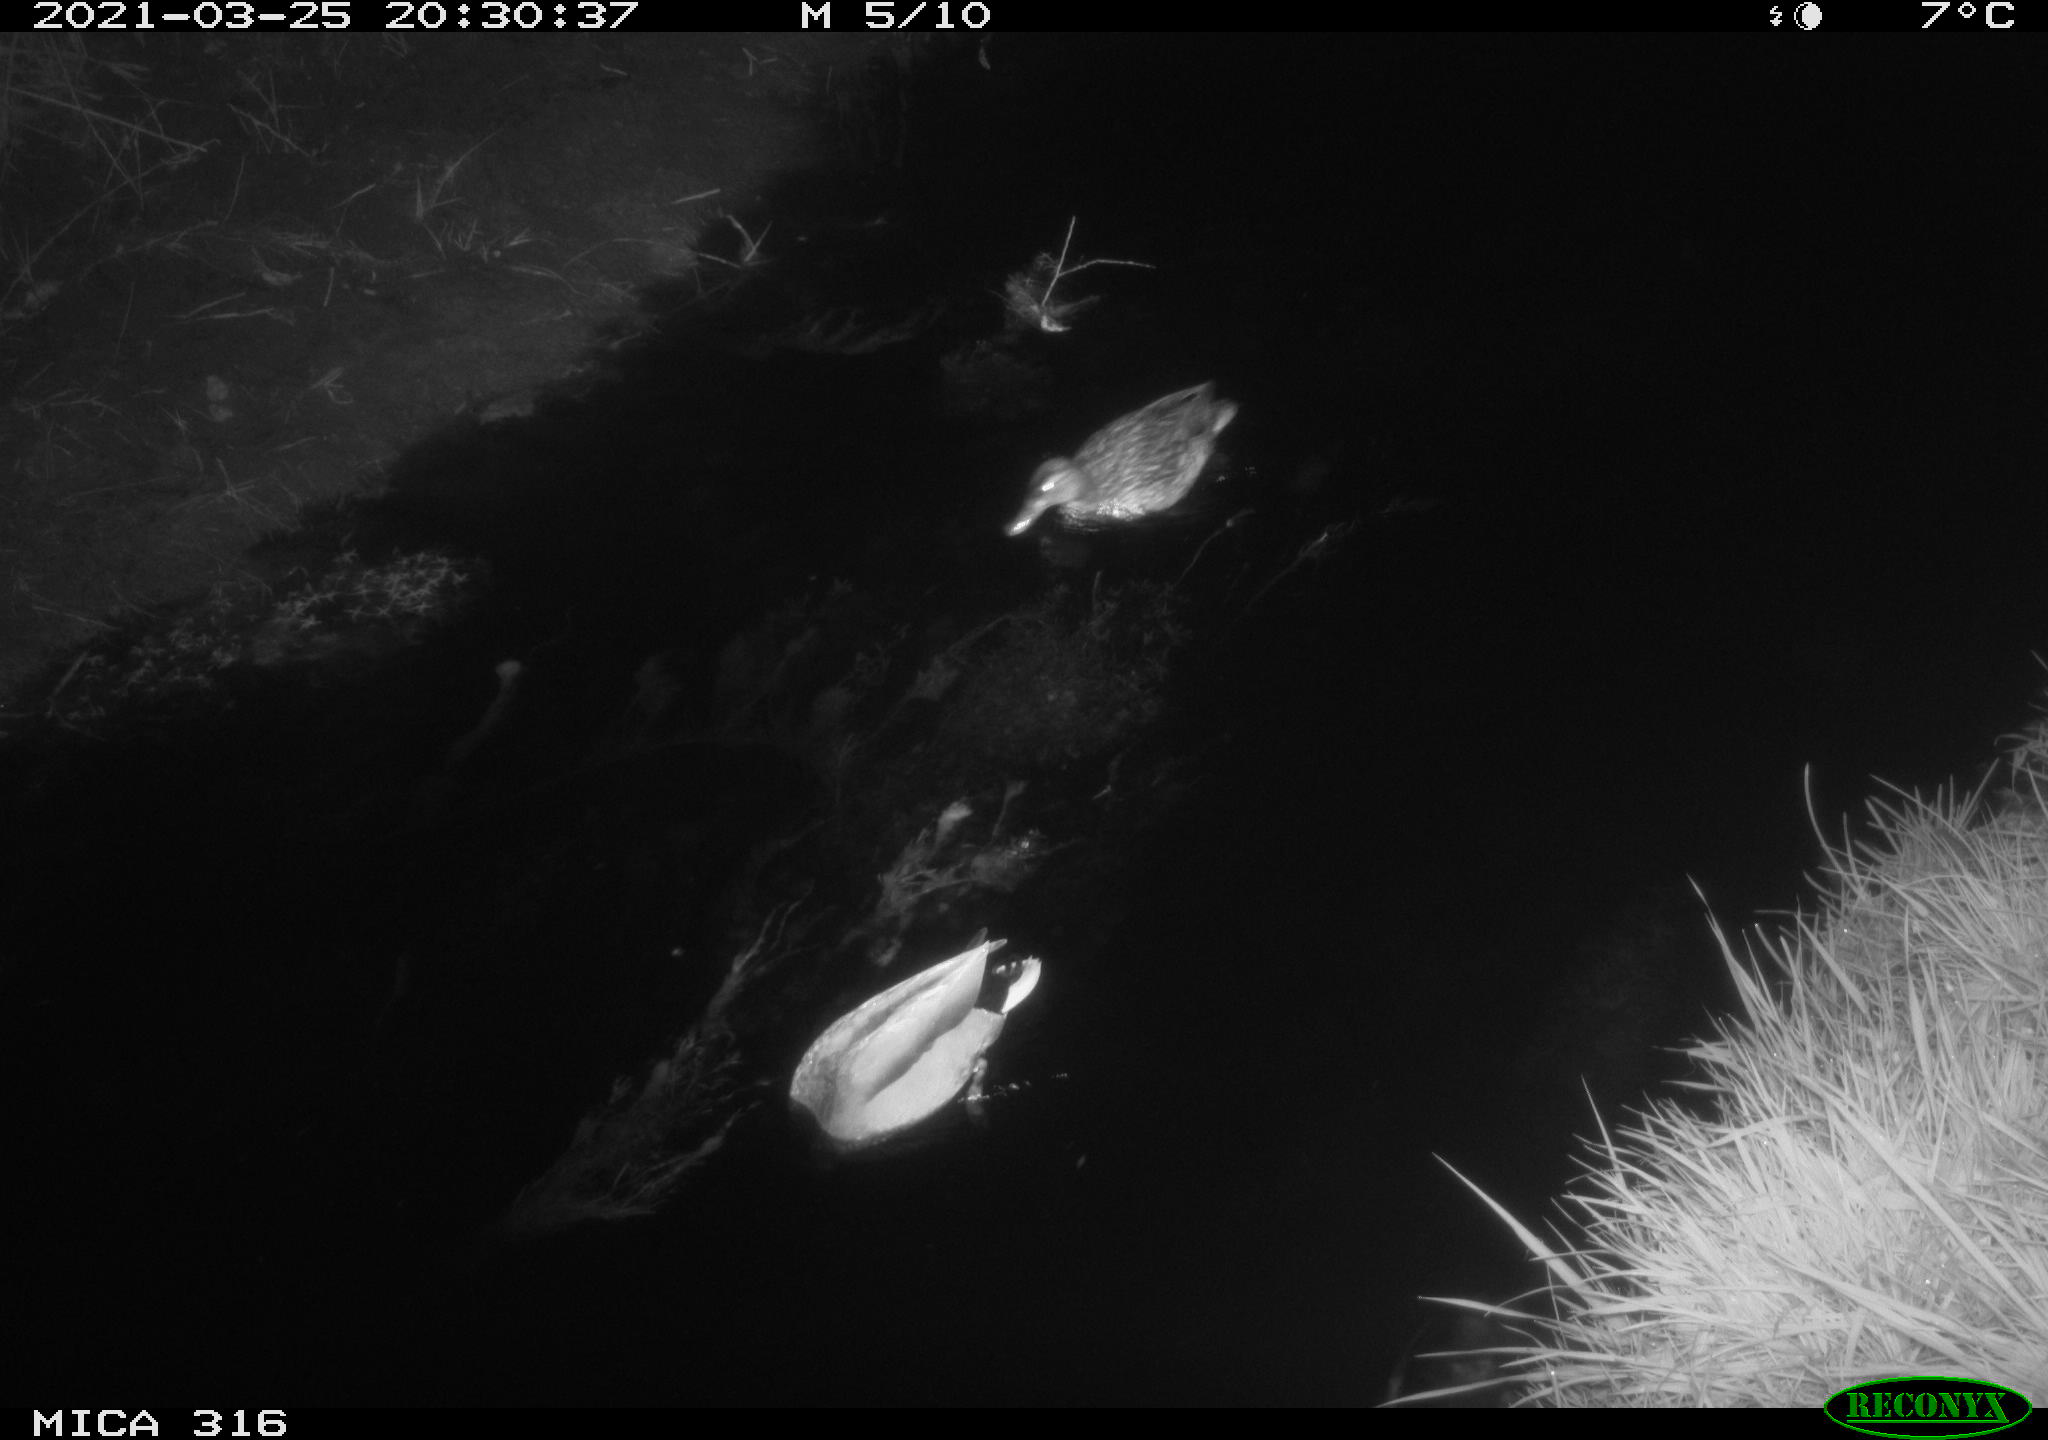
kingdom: Animalia
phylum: Chordata
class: Aves
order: Anseriformes
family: Anatidae
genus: Anas
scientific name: Anas platyrhynchos
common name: Mallard
